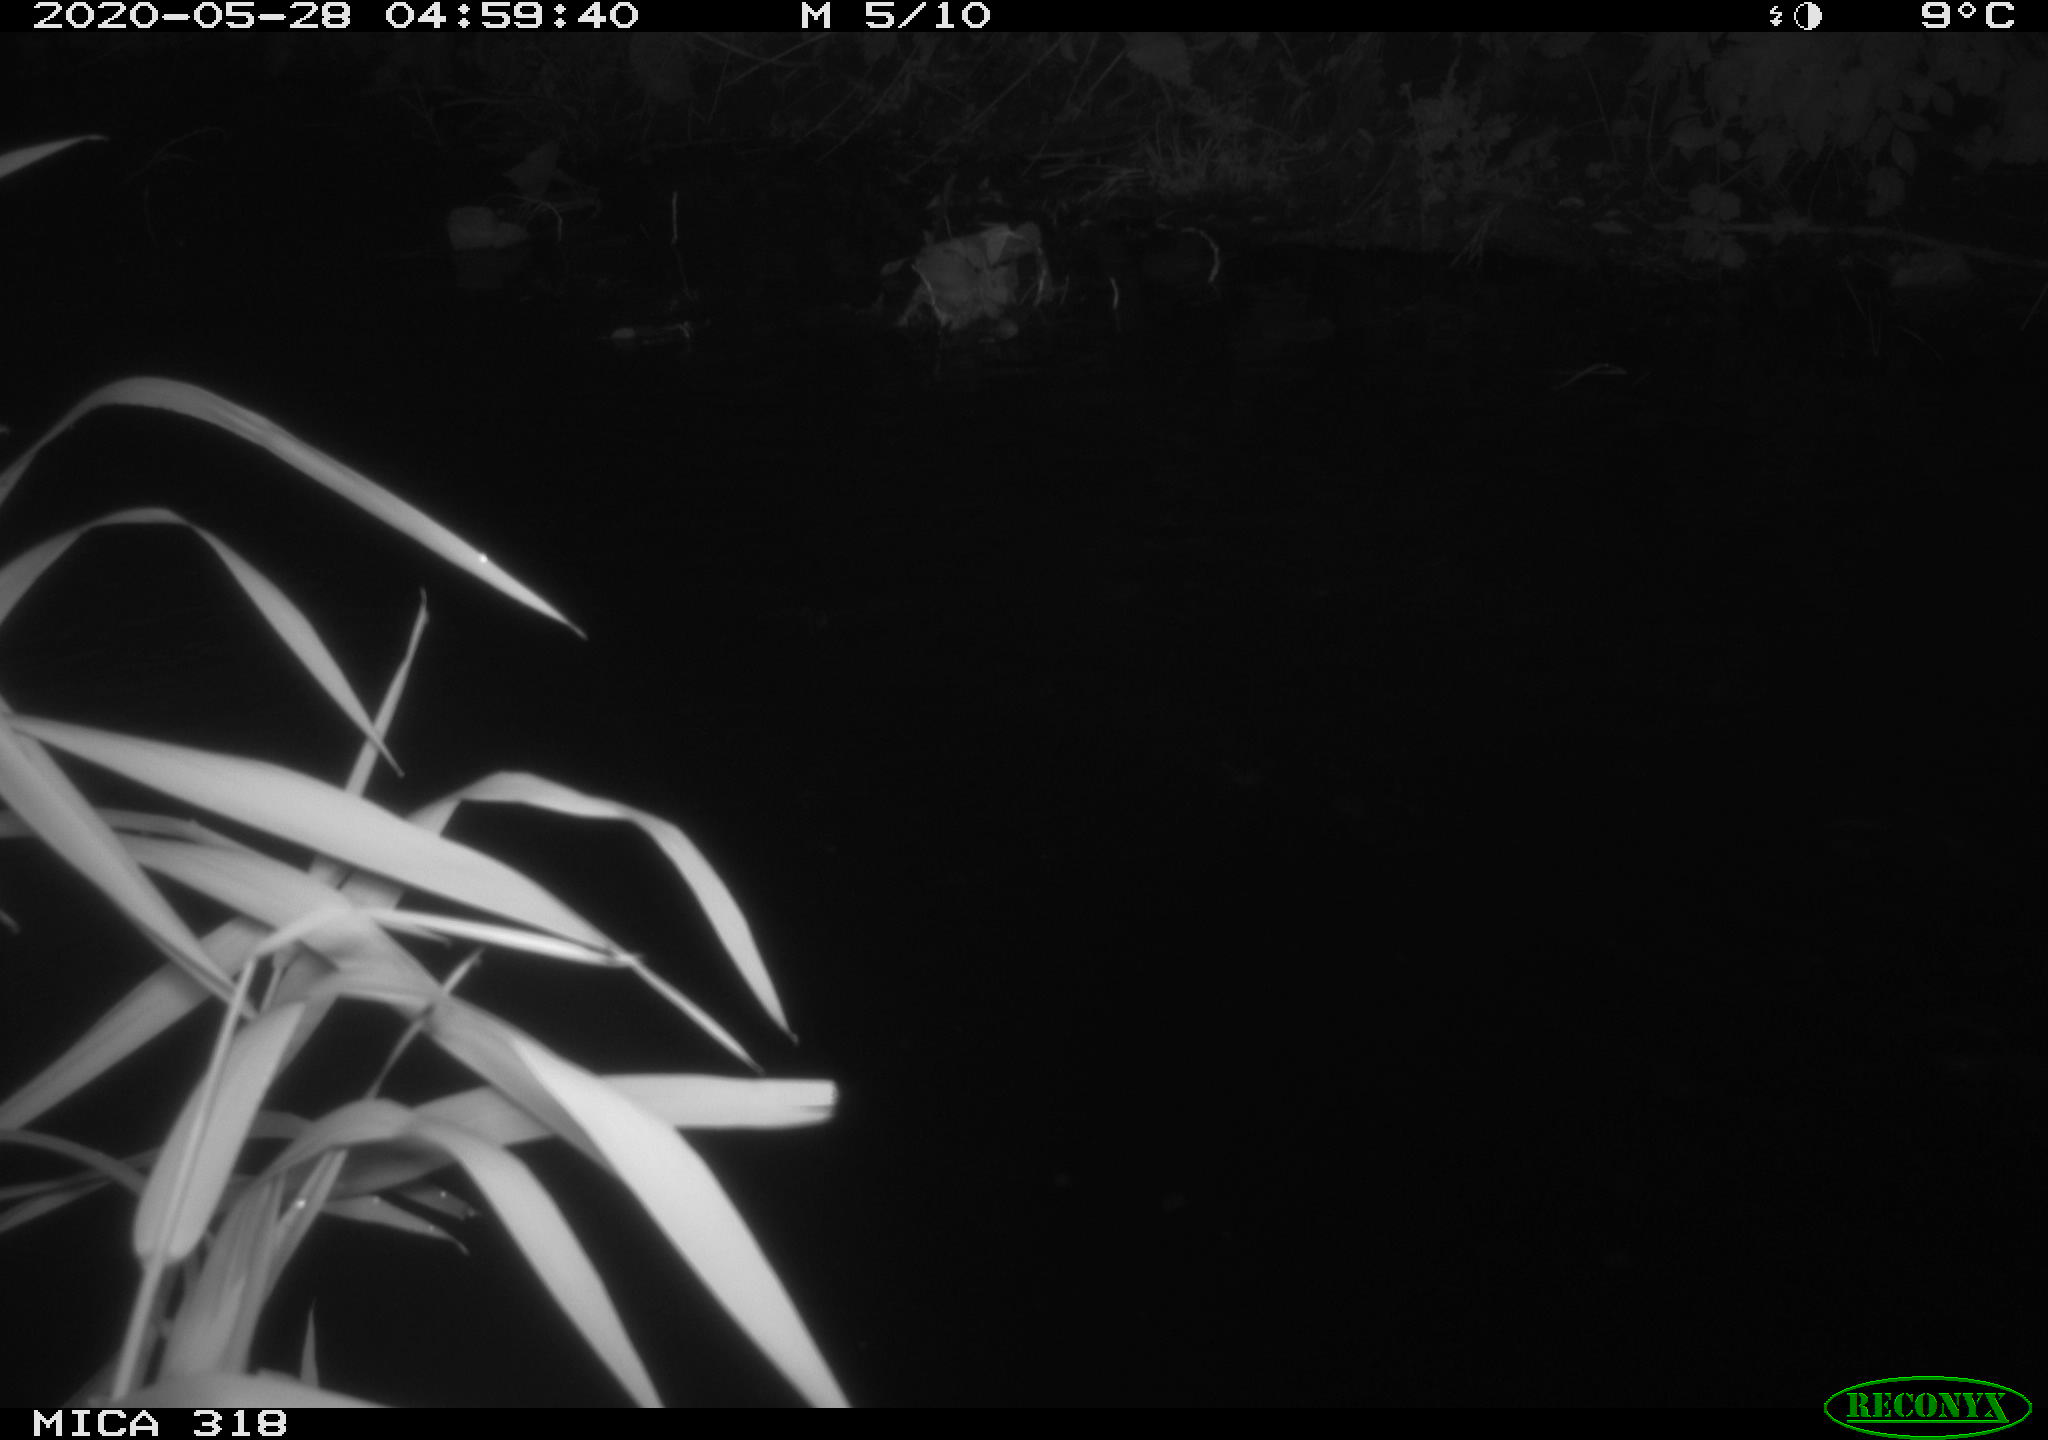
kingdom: Animalia
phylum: Chordata
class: Aves
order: Anseriformes
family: Anatidae
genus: Anas
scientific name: Anas platyrhynchos
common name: Mallard
